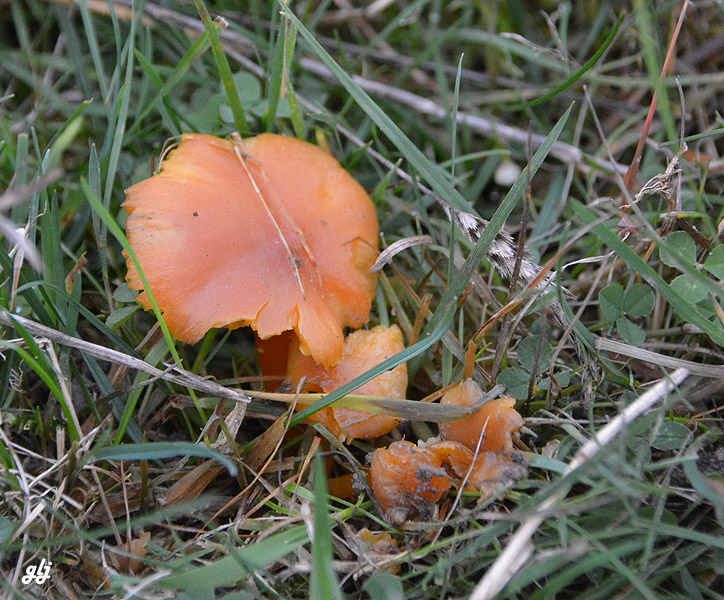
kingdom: Fungi
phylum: Basidiomycota
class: Agaricomycetes
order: Agaricales
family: Hygrophoraceae
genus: Hygrocybe
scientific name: Hygrocybe miniata
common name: mønje-vokshat
